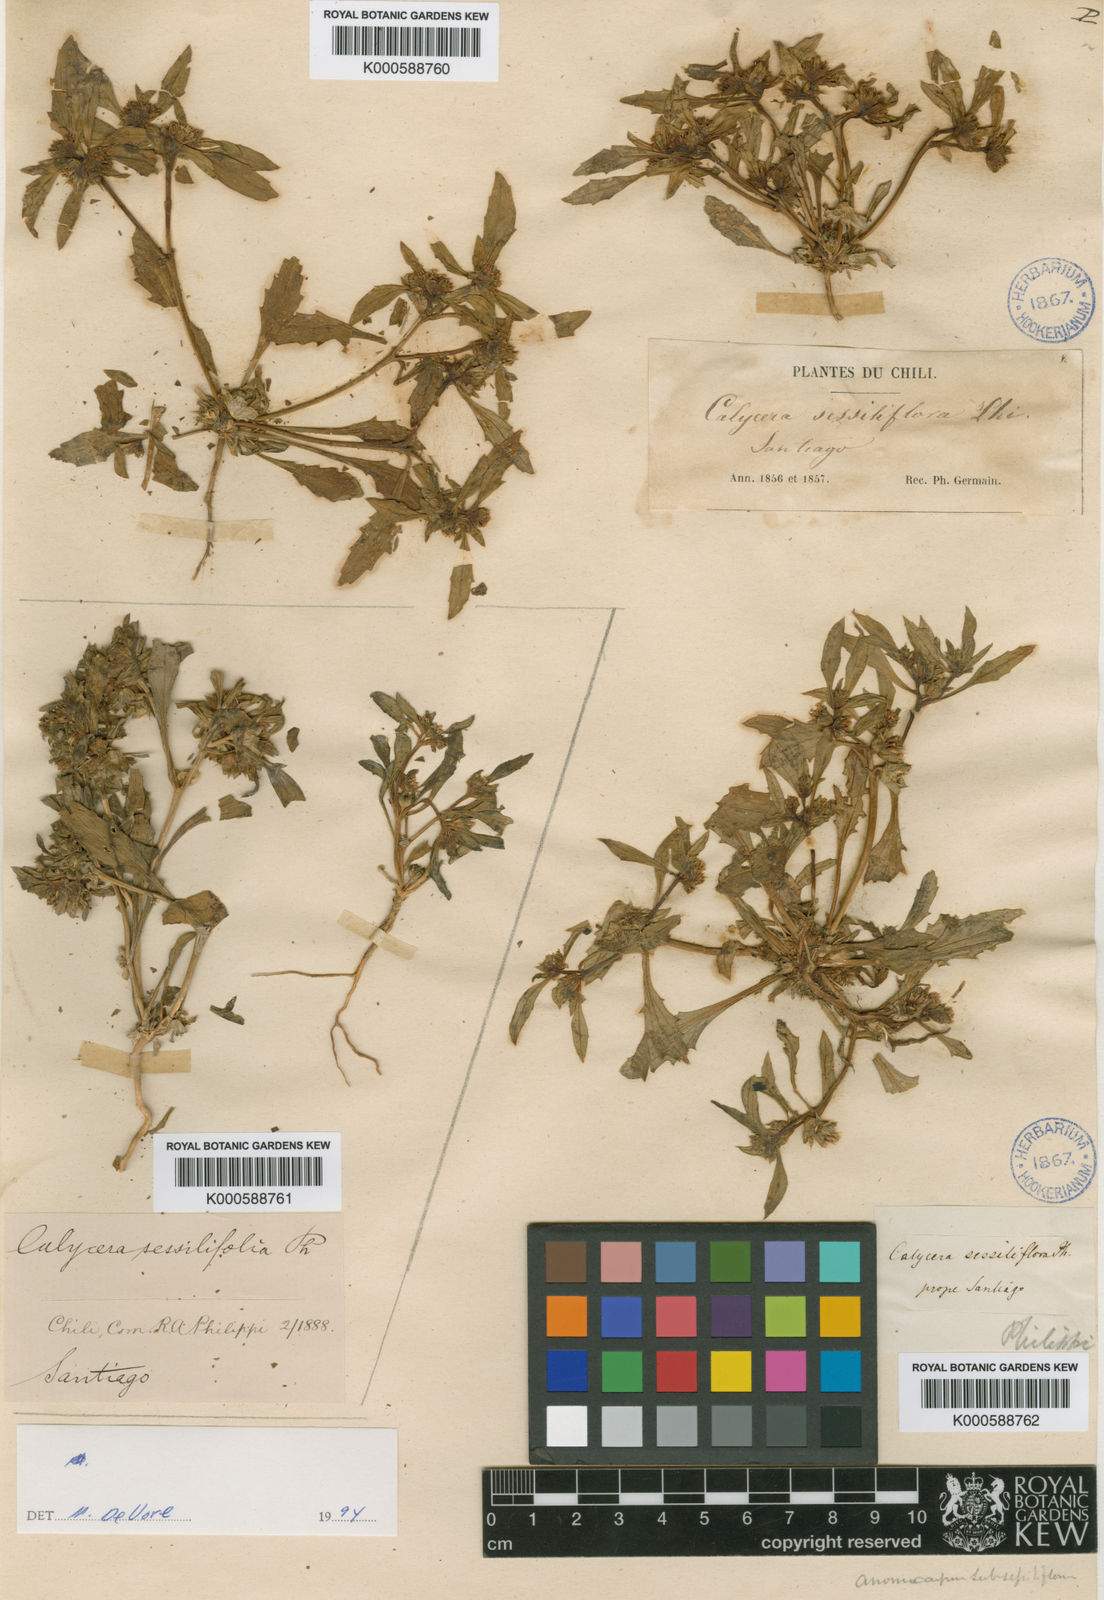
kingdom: Plantae
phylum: Tracheophyta
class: Magnoliopsida
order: Asterales
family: Calyceraceae
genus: Leucocera
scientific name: Leucocera sessiliflora
